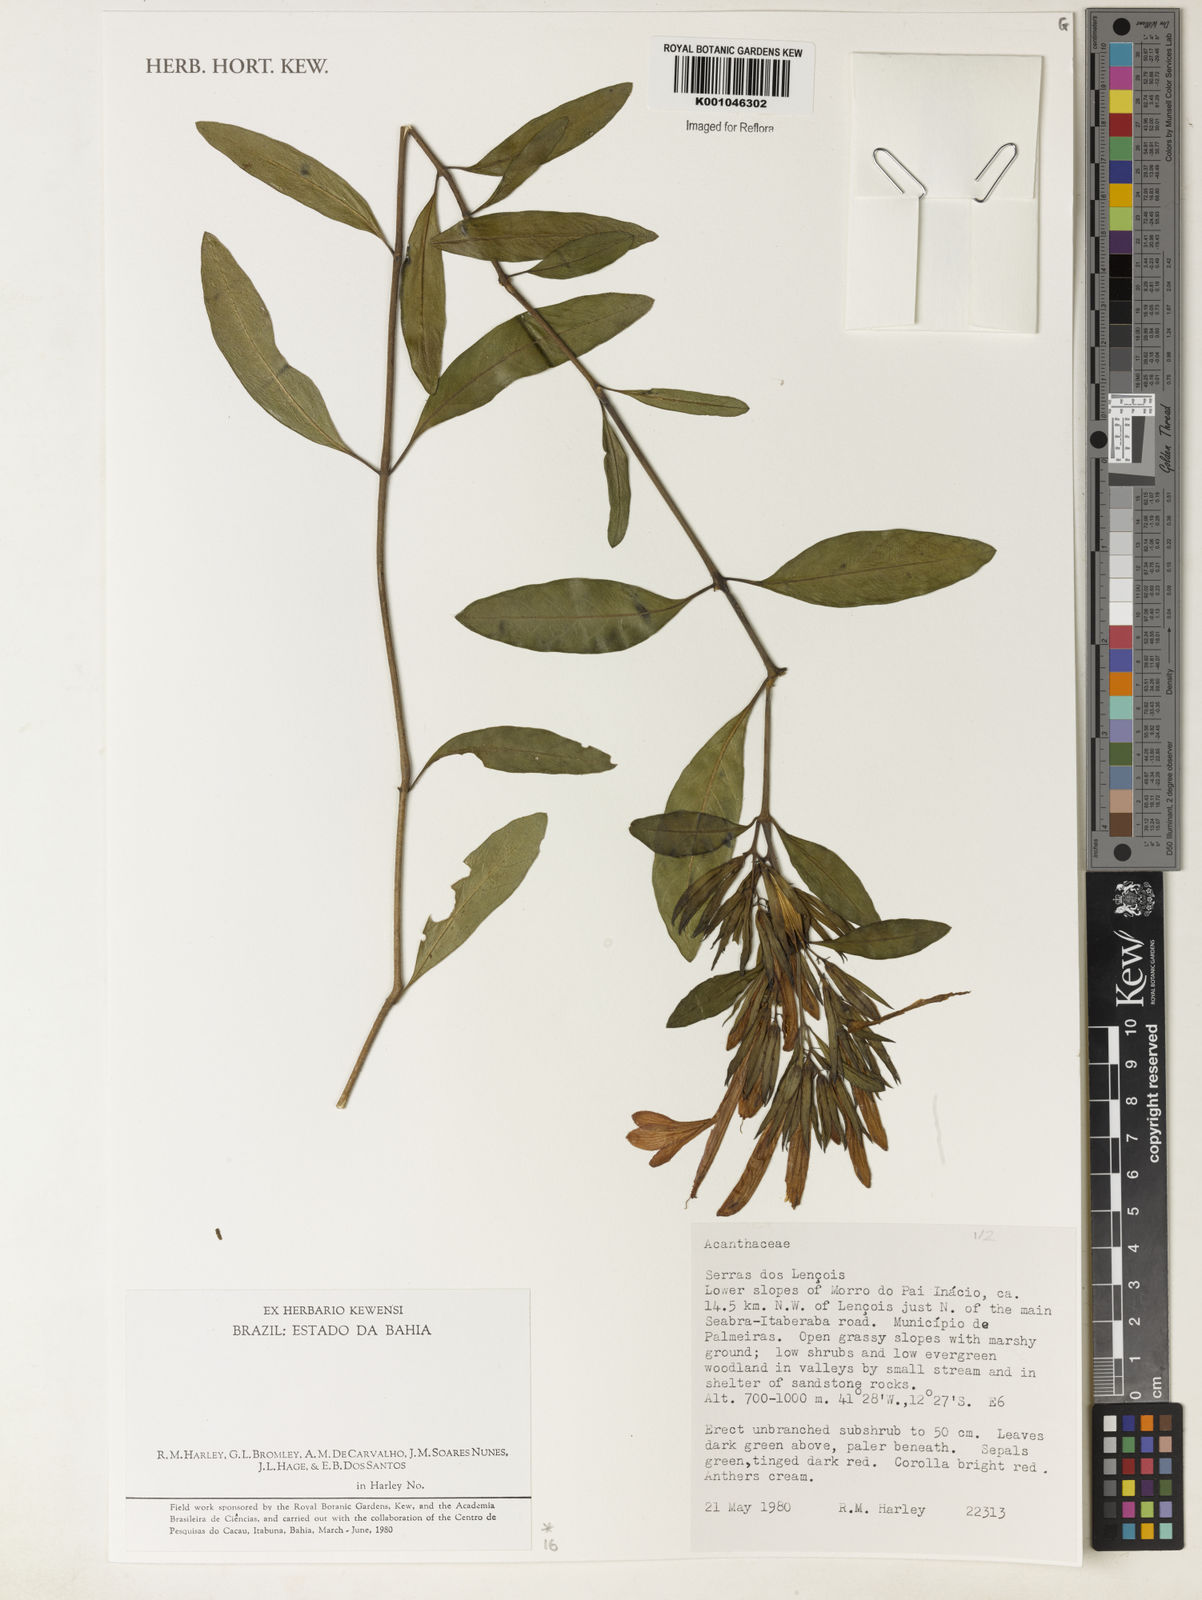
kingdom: Plantae
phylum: Tracheophyta
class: Magnoliopsida
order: Lamiales
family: Acanthaceae
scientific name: Acanthaceae
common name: Acanthaceae
